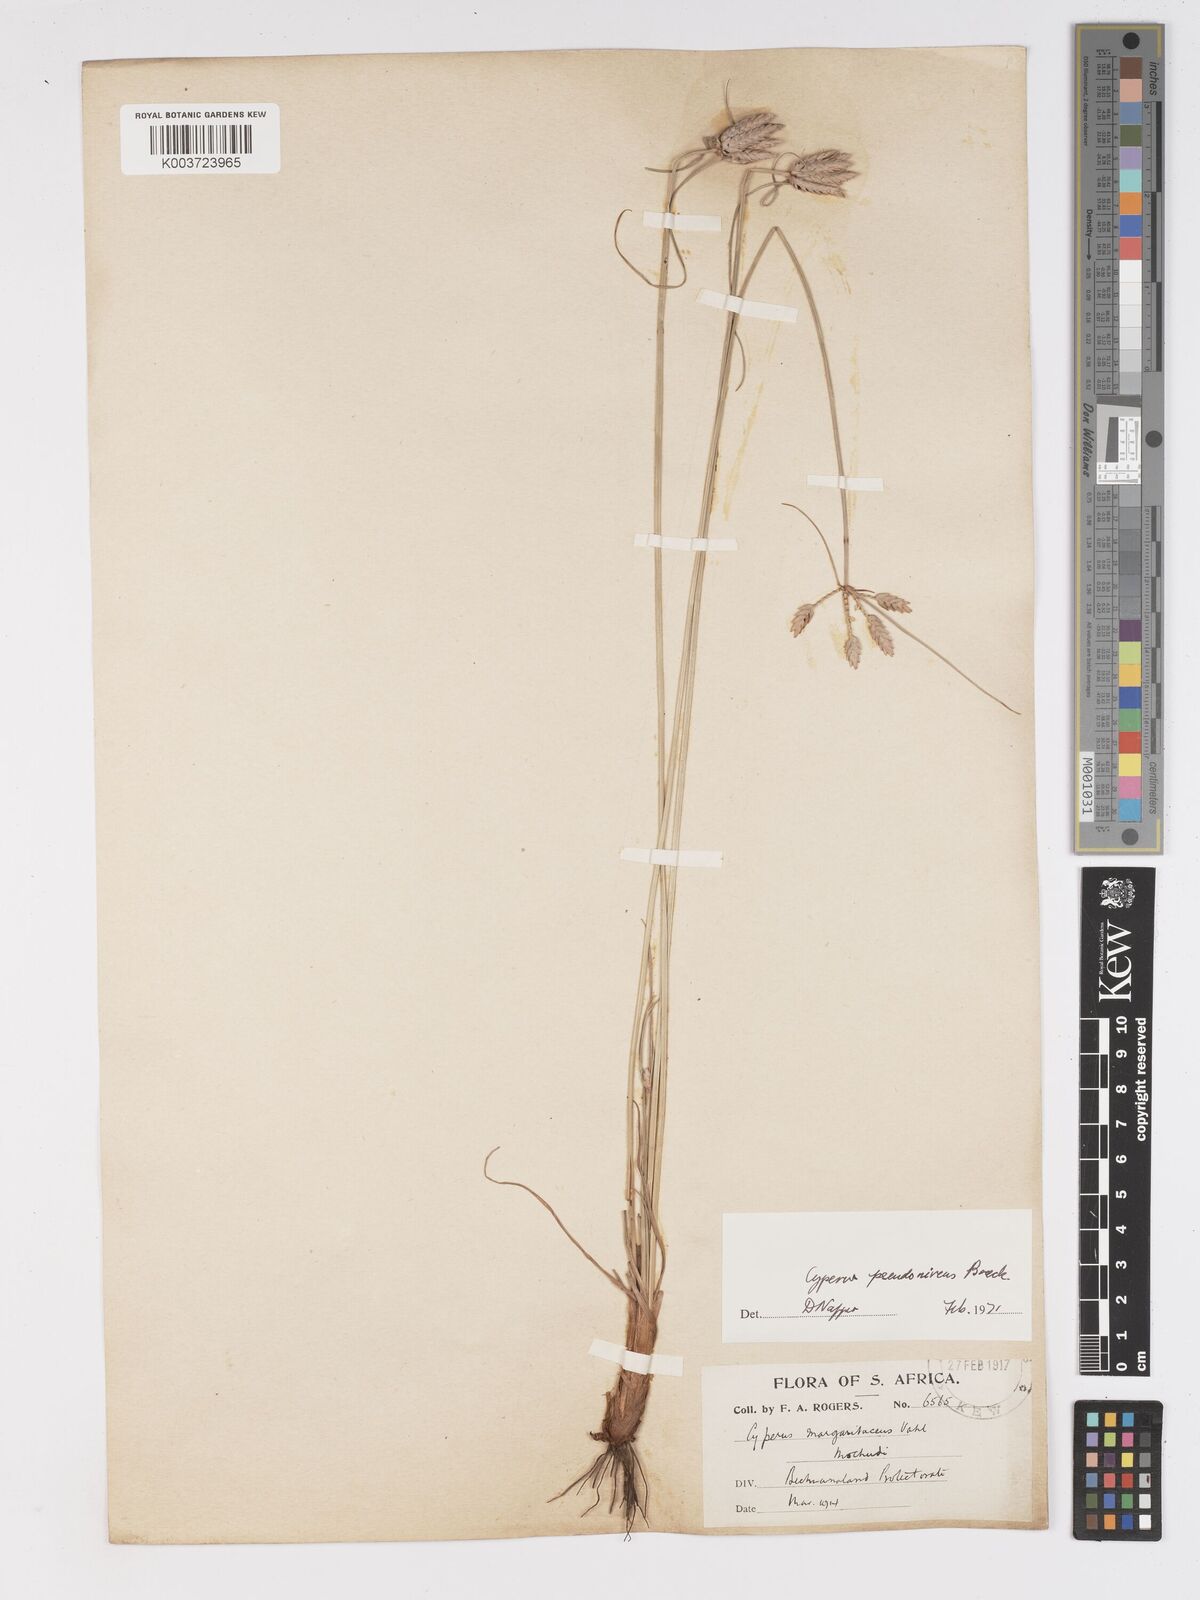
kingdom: Plantae
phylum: Tracheophyta
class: Liliopsida
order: Poales
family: Cyperaceae
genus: Cyperus
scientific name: Cyperus margaritaceus
